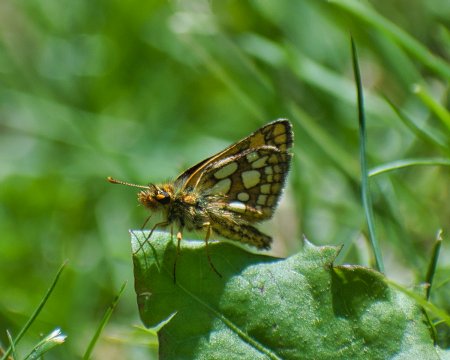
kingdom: Animalia
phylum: Arthropoda
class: Insecta
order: Lepidoptera
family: Hesperiidae
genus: Carterocephalus
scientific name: Carterocephalus skada
